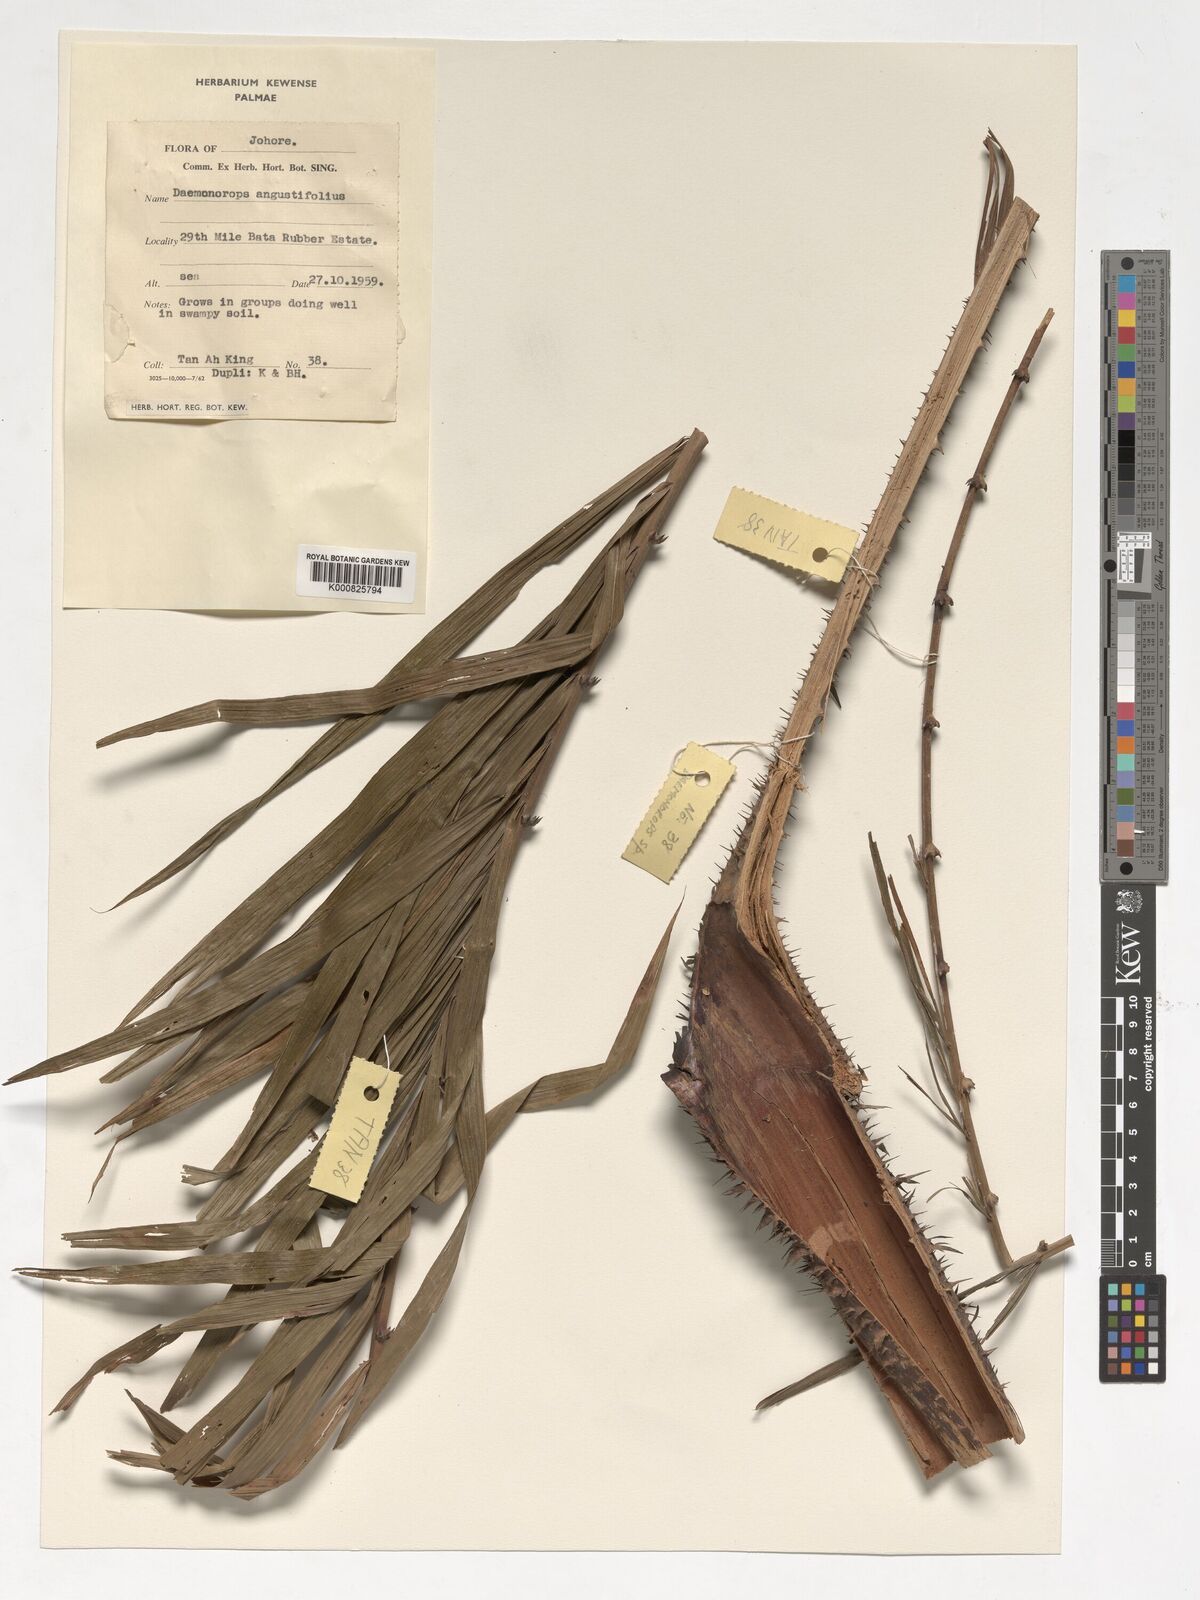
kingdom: Plantae
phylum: Tracheophyta
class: Liliopsida
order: Arecales
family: Arecaceae
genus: Calamus
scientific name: Calamus melanochaetes
